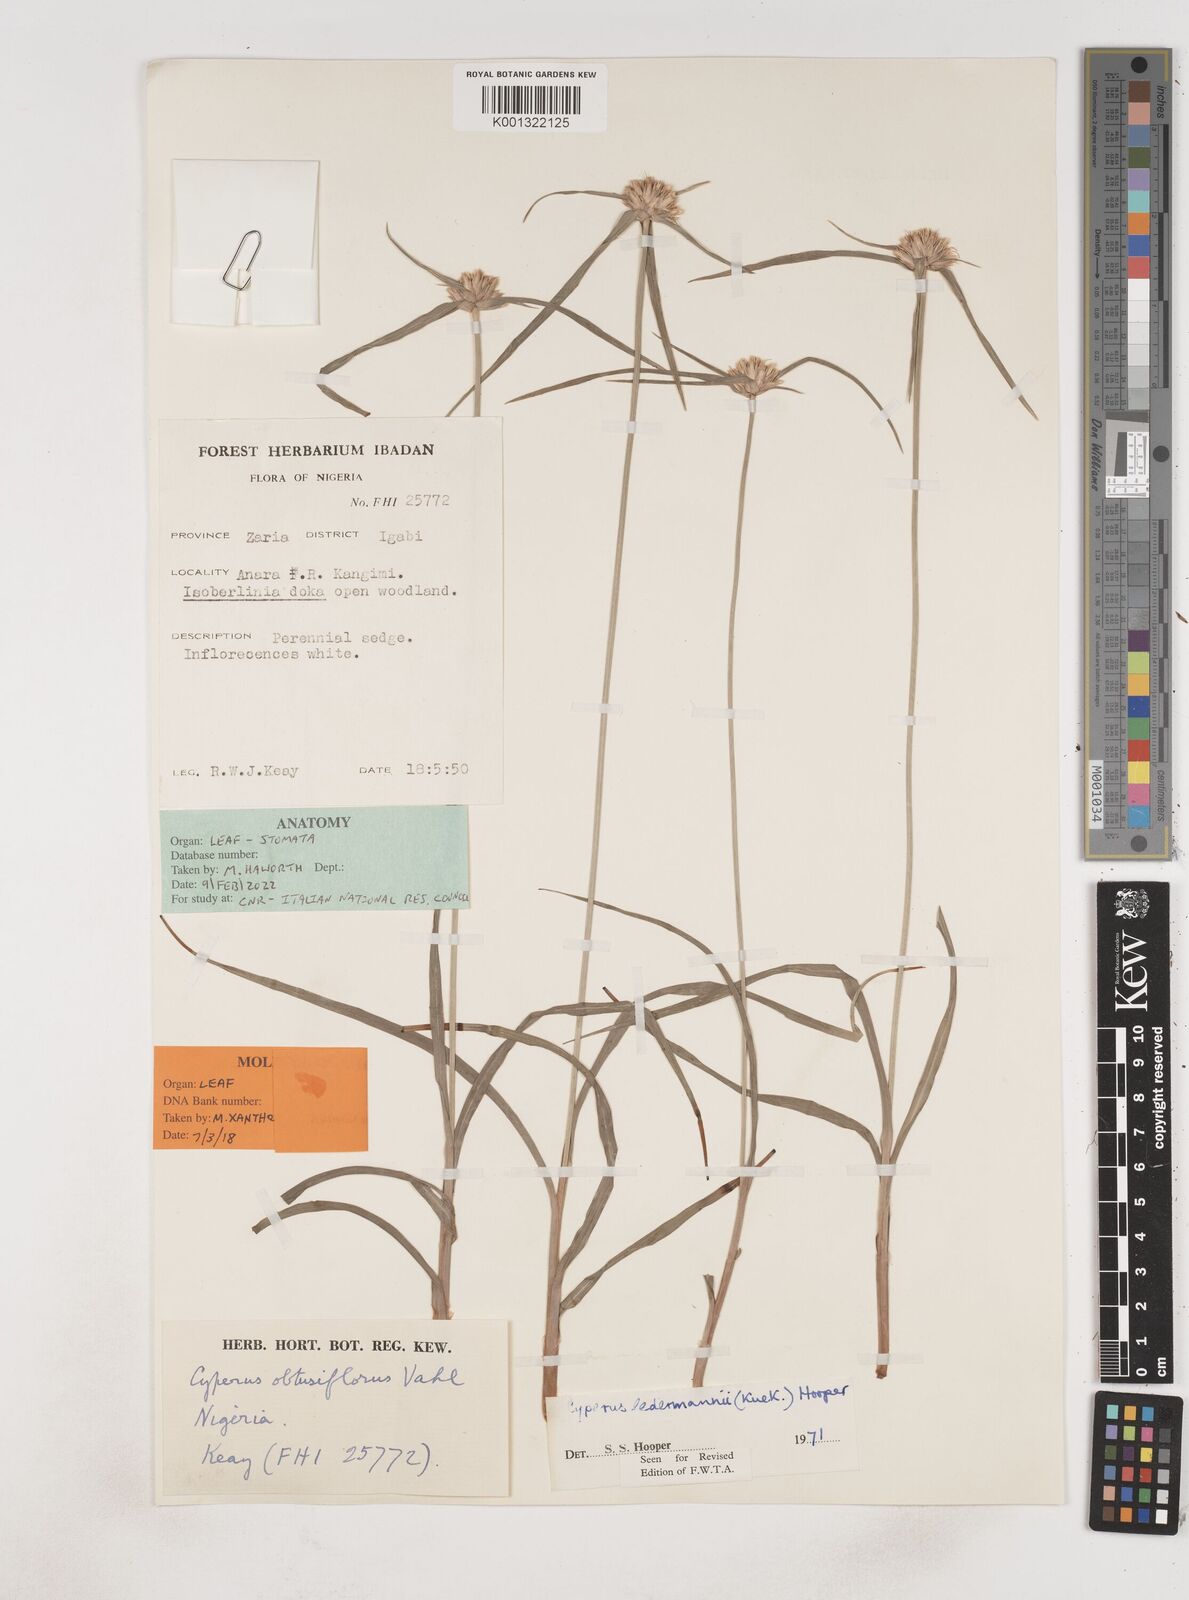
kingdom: Plantae
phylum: Tracheophyta
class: Liliopsida
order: Poales
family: Cyperaceae
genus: Cyperus
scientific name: Cyperus niveus
